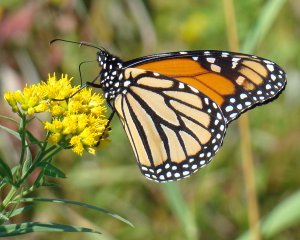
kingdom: Animalia
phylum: Arthropoda
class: Insecta
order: Lepidoptera
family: Nymphalidae
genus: Danaus
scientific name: Danaus plexippus
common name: Monarch
